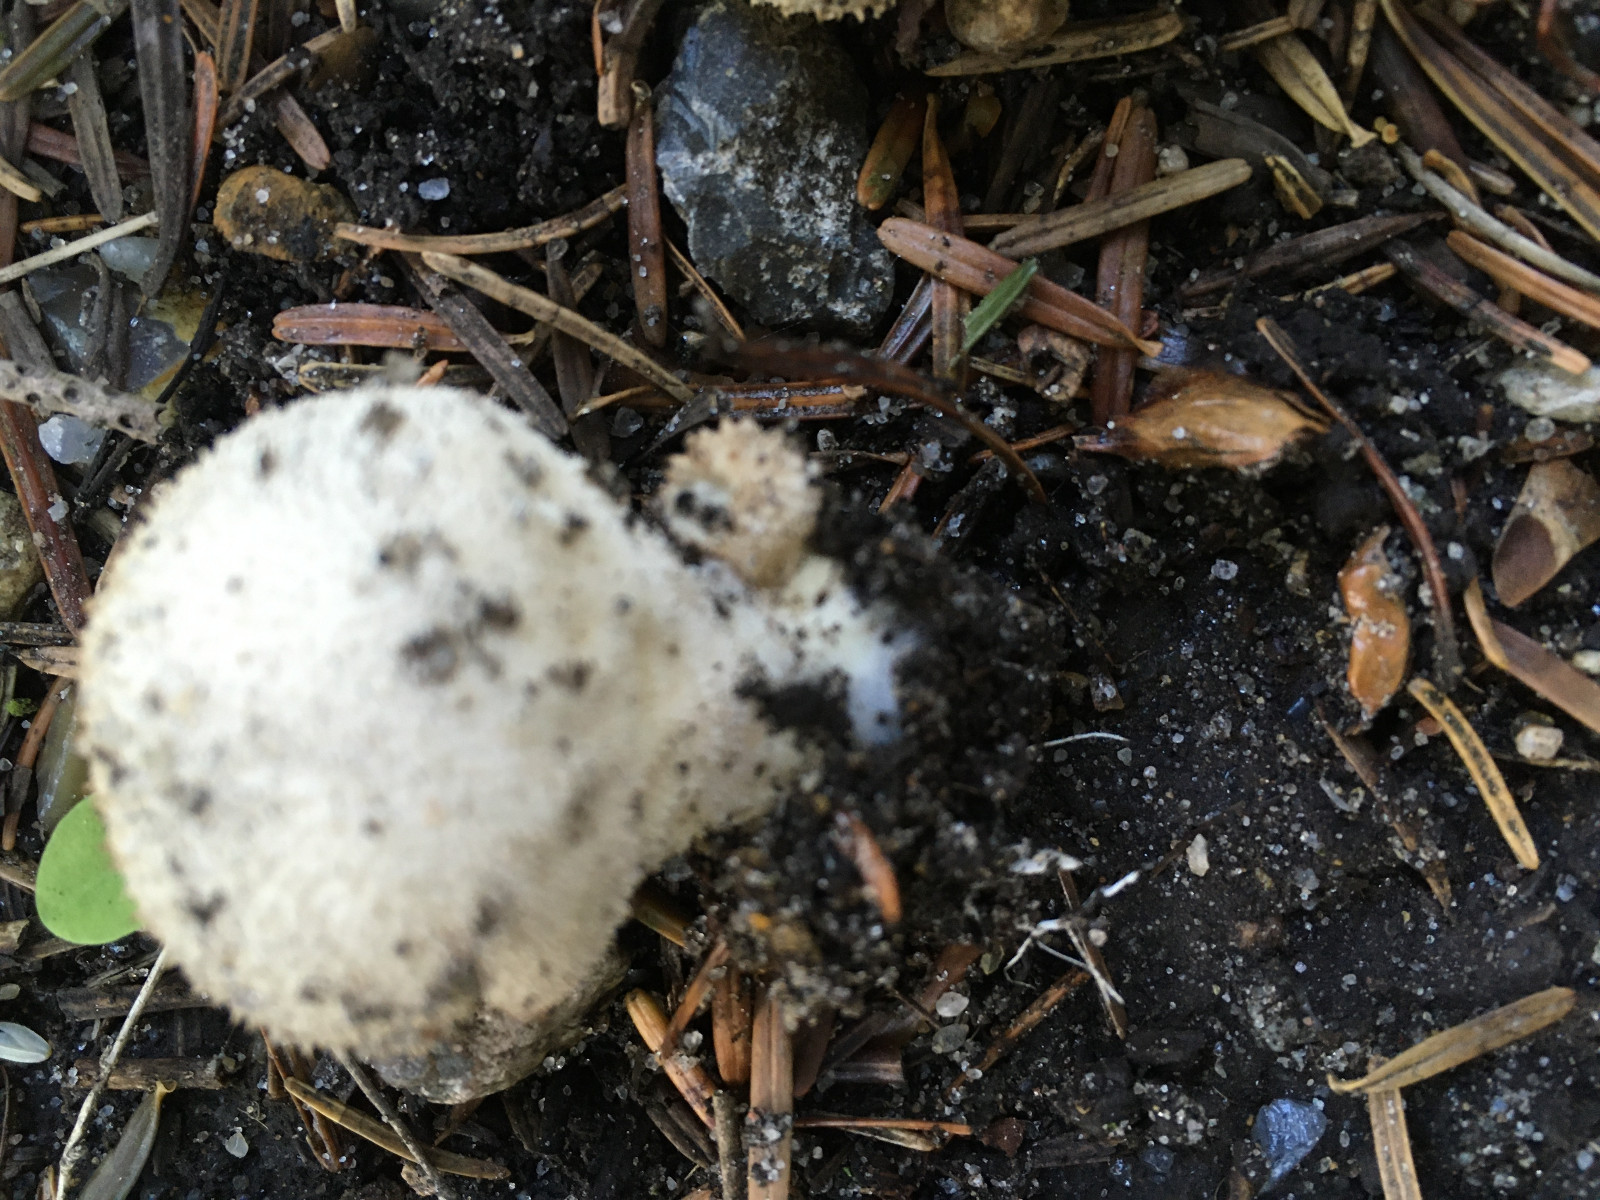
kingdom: Fungi
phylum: Basidiomycota
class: Agaricomycetes
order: Agaricales
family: Lycoperdaceae
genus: Lycoperdon
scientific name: Lycoperdon perlatum
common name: krystal-støvbold
